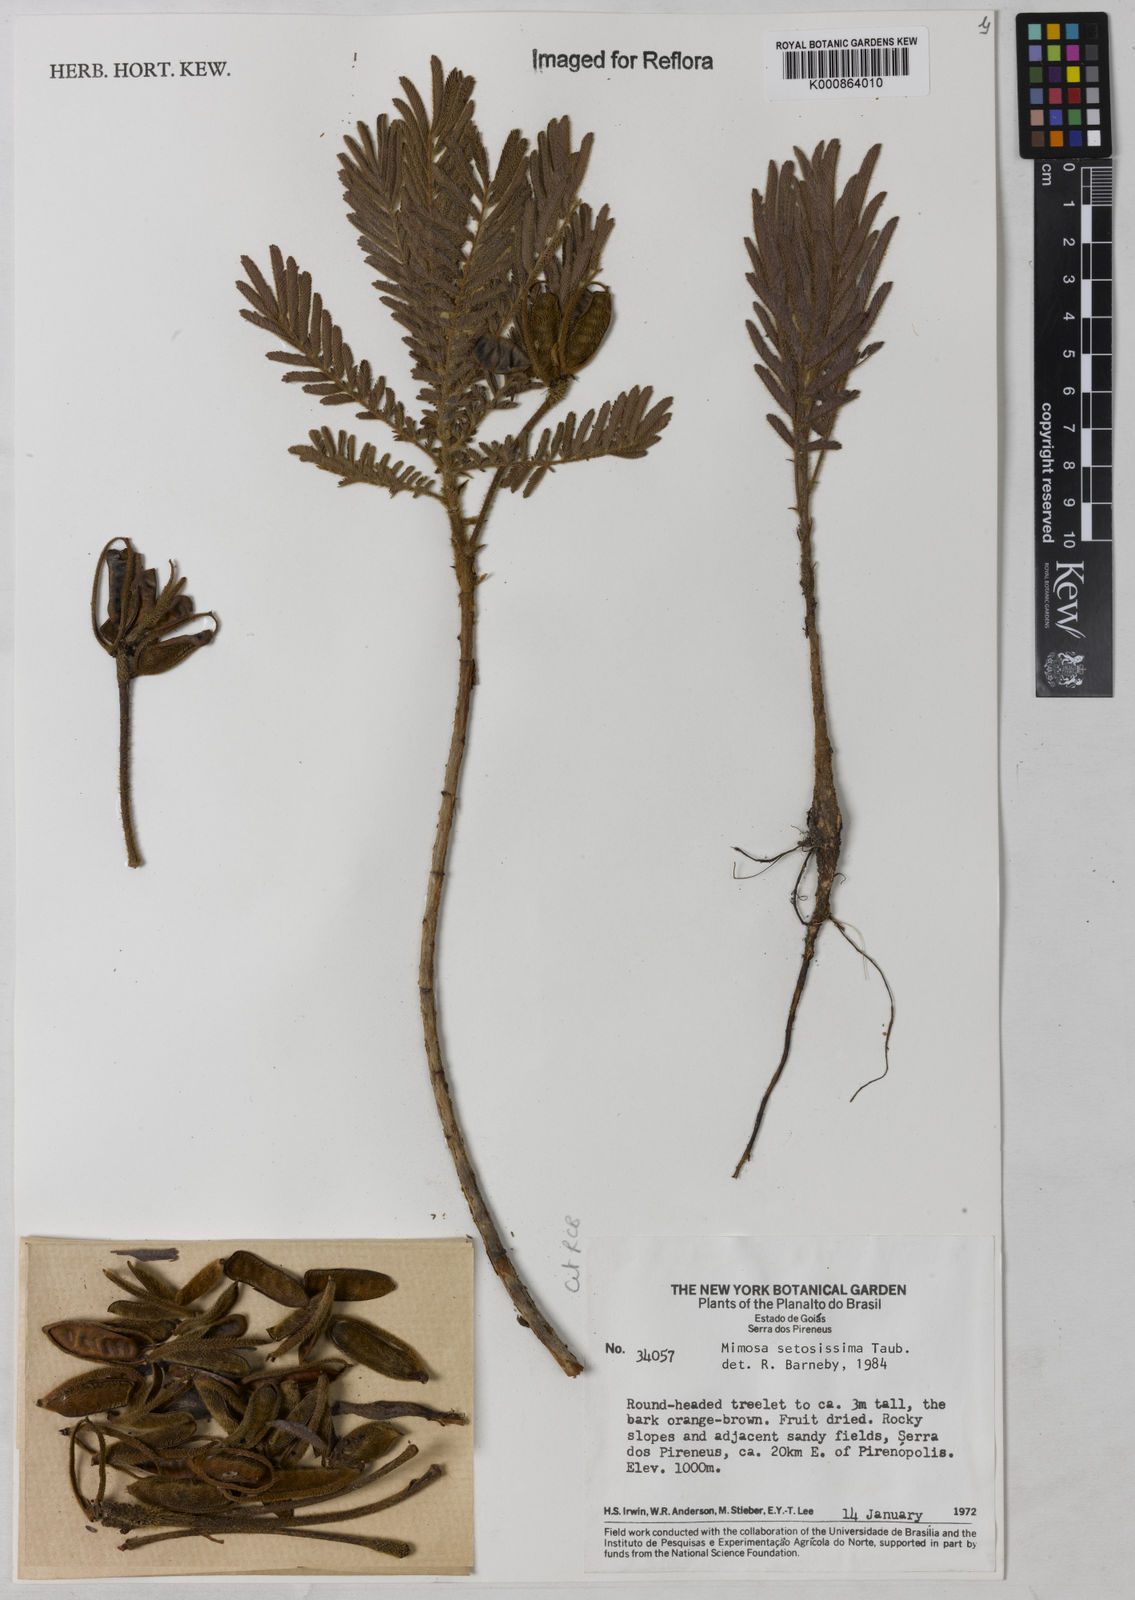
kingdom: Plantae
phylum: Tracheophyta
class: Magnoliopsida
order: Fabales
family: Fabaceae
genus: Mimosa
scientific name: Mimosa setosissima
